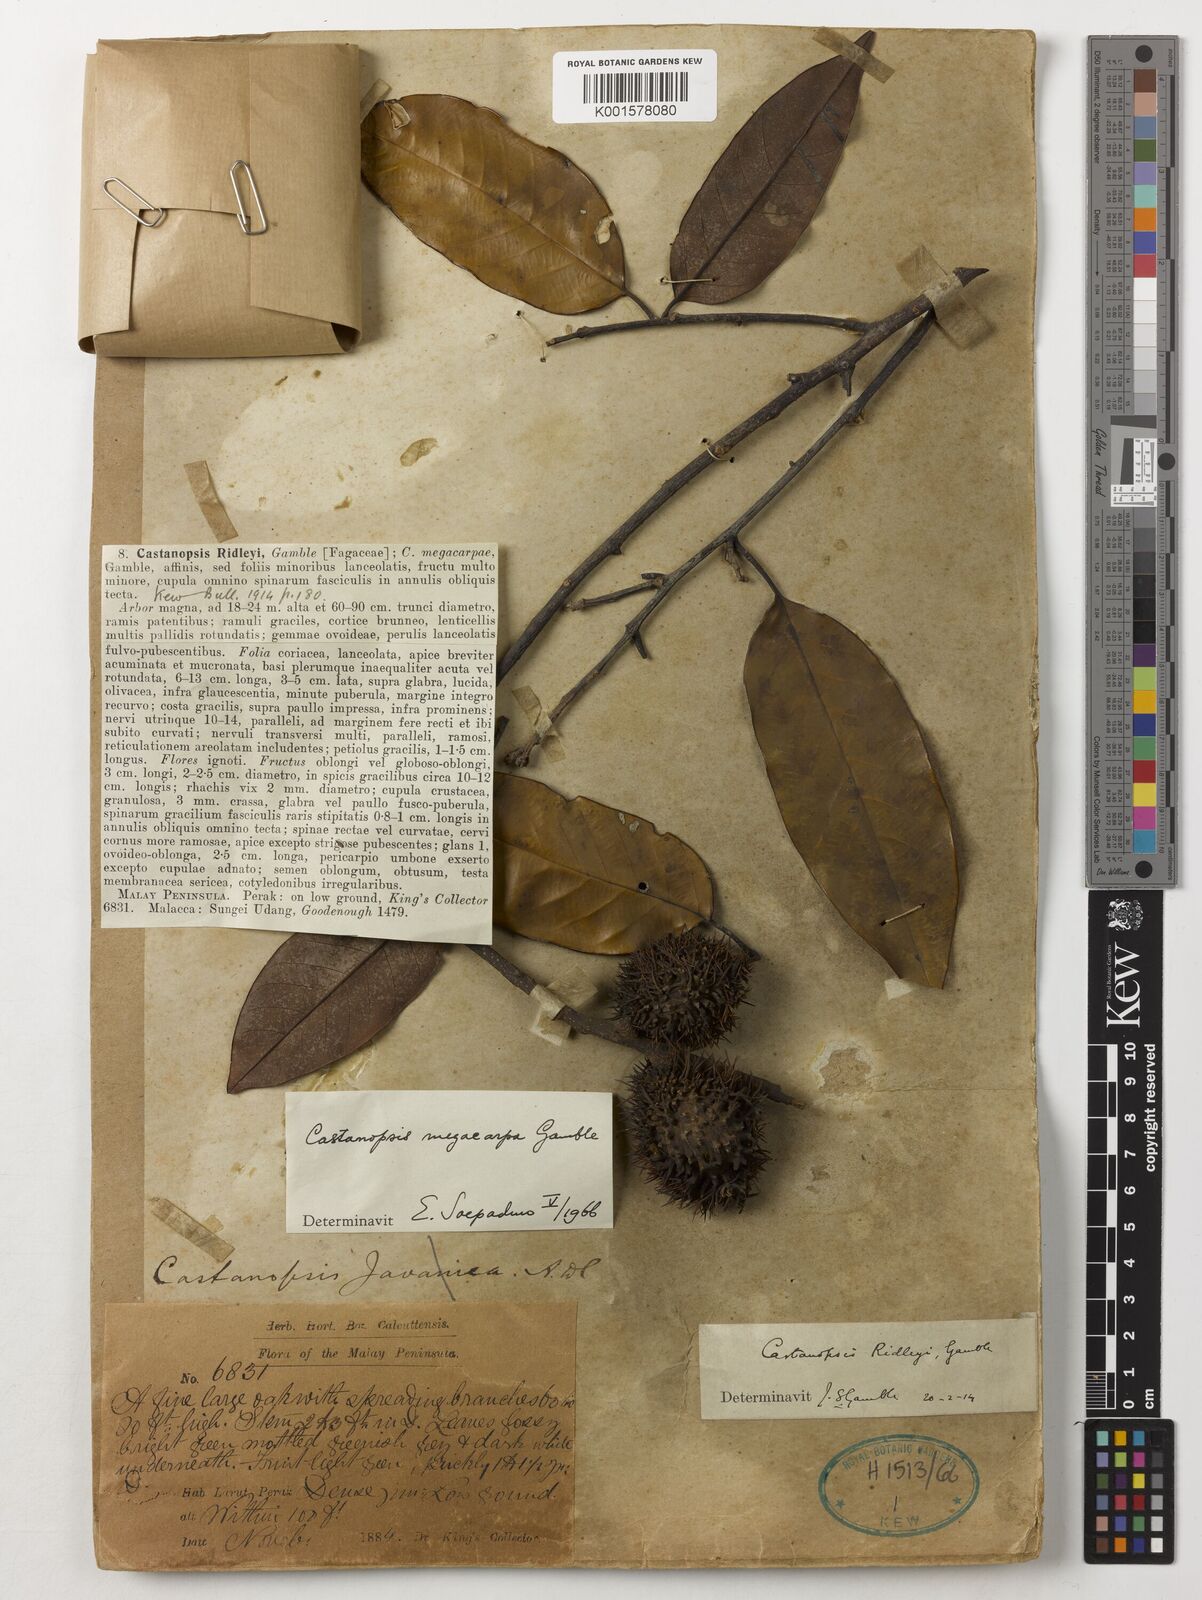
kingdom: Plantae
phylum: Tracheophyta
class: Magnoliopsida
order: Fagales
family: Fagaceae
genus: Castanopsis
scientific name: Castanopsis ridleyi
